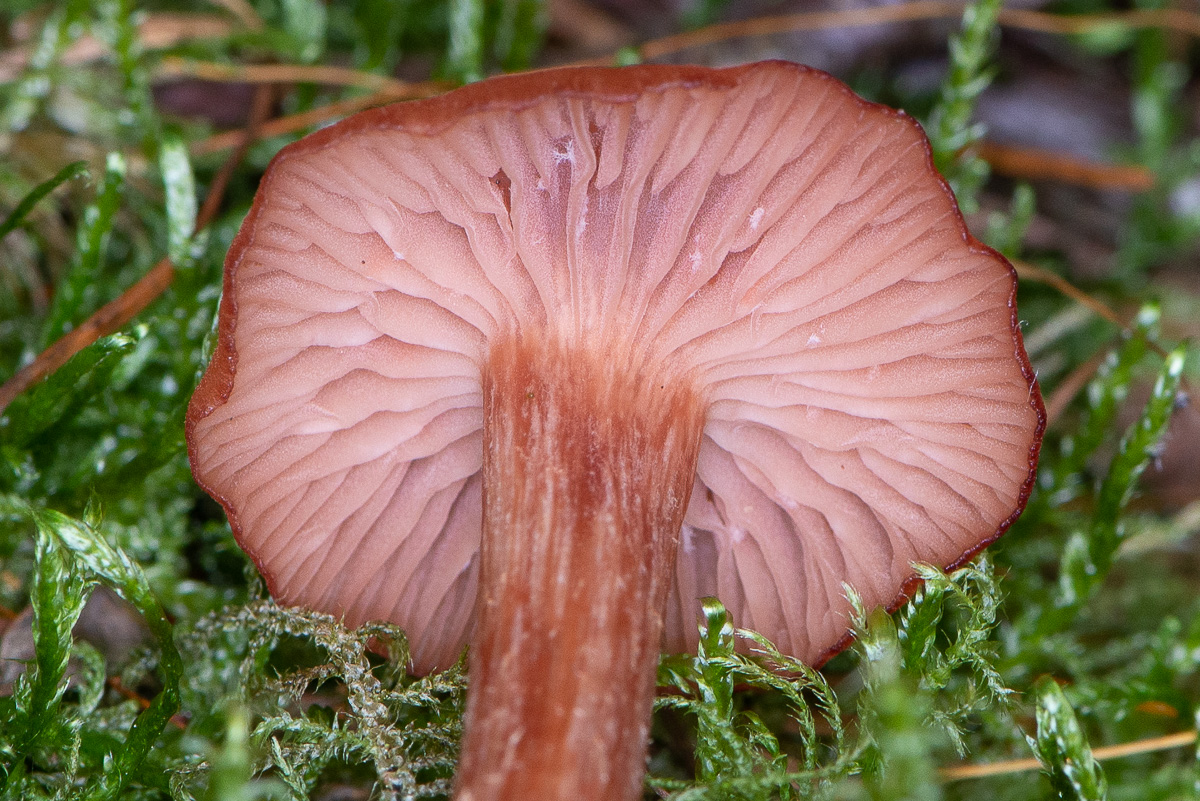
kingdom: Fungi
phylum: Basidiomycota
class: Agaricomycetes
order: Agaricales
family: Hydnangiaceae
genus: Laccaria
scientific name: Laccaria laccata
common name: rød ametysthat
